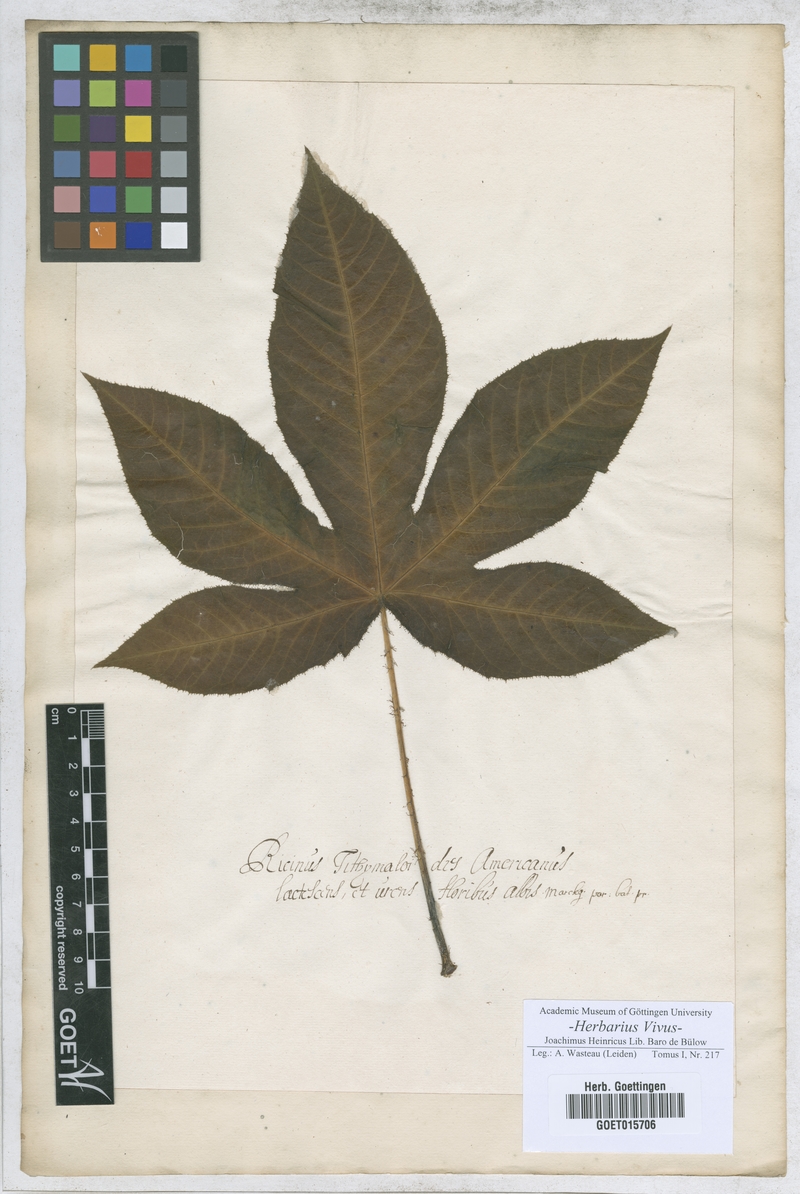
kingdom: Plantae
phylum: Tracheophyta
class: Magnoliopsida
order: Malpighiales
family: Euphorbiaceae
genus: Cnidoscolus
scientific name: Cnidoscolus urens
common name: Bull-nettle
